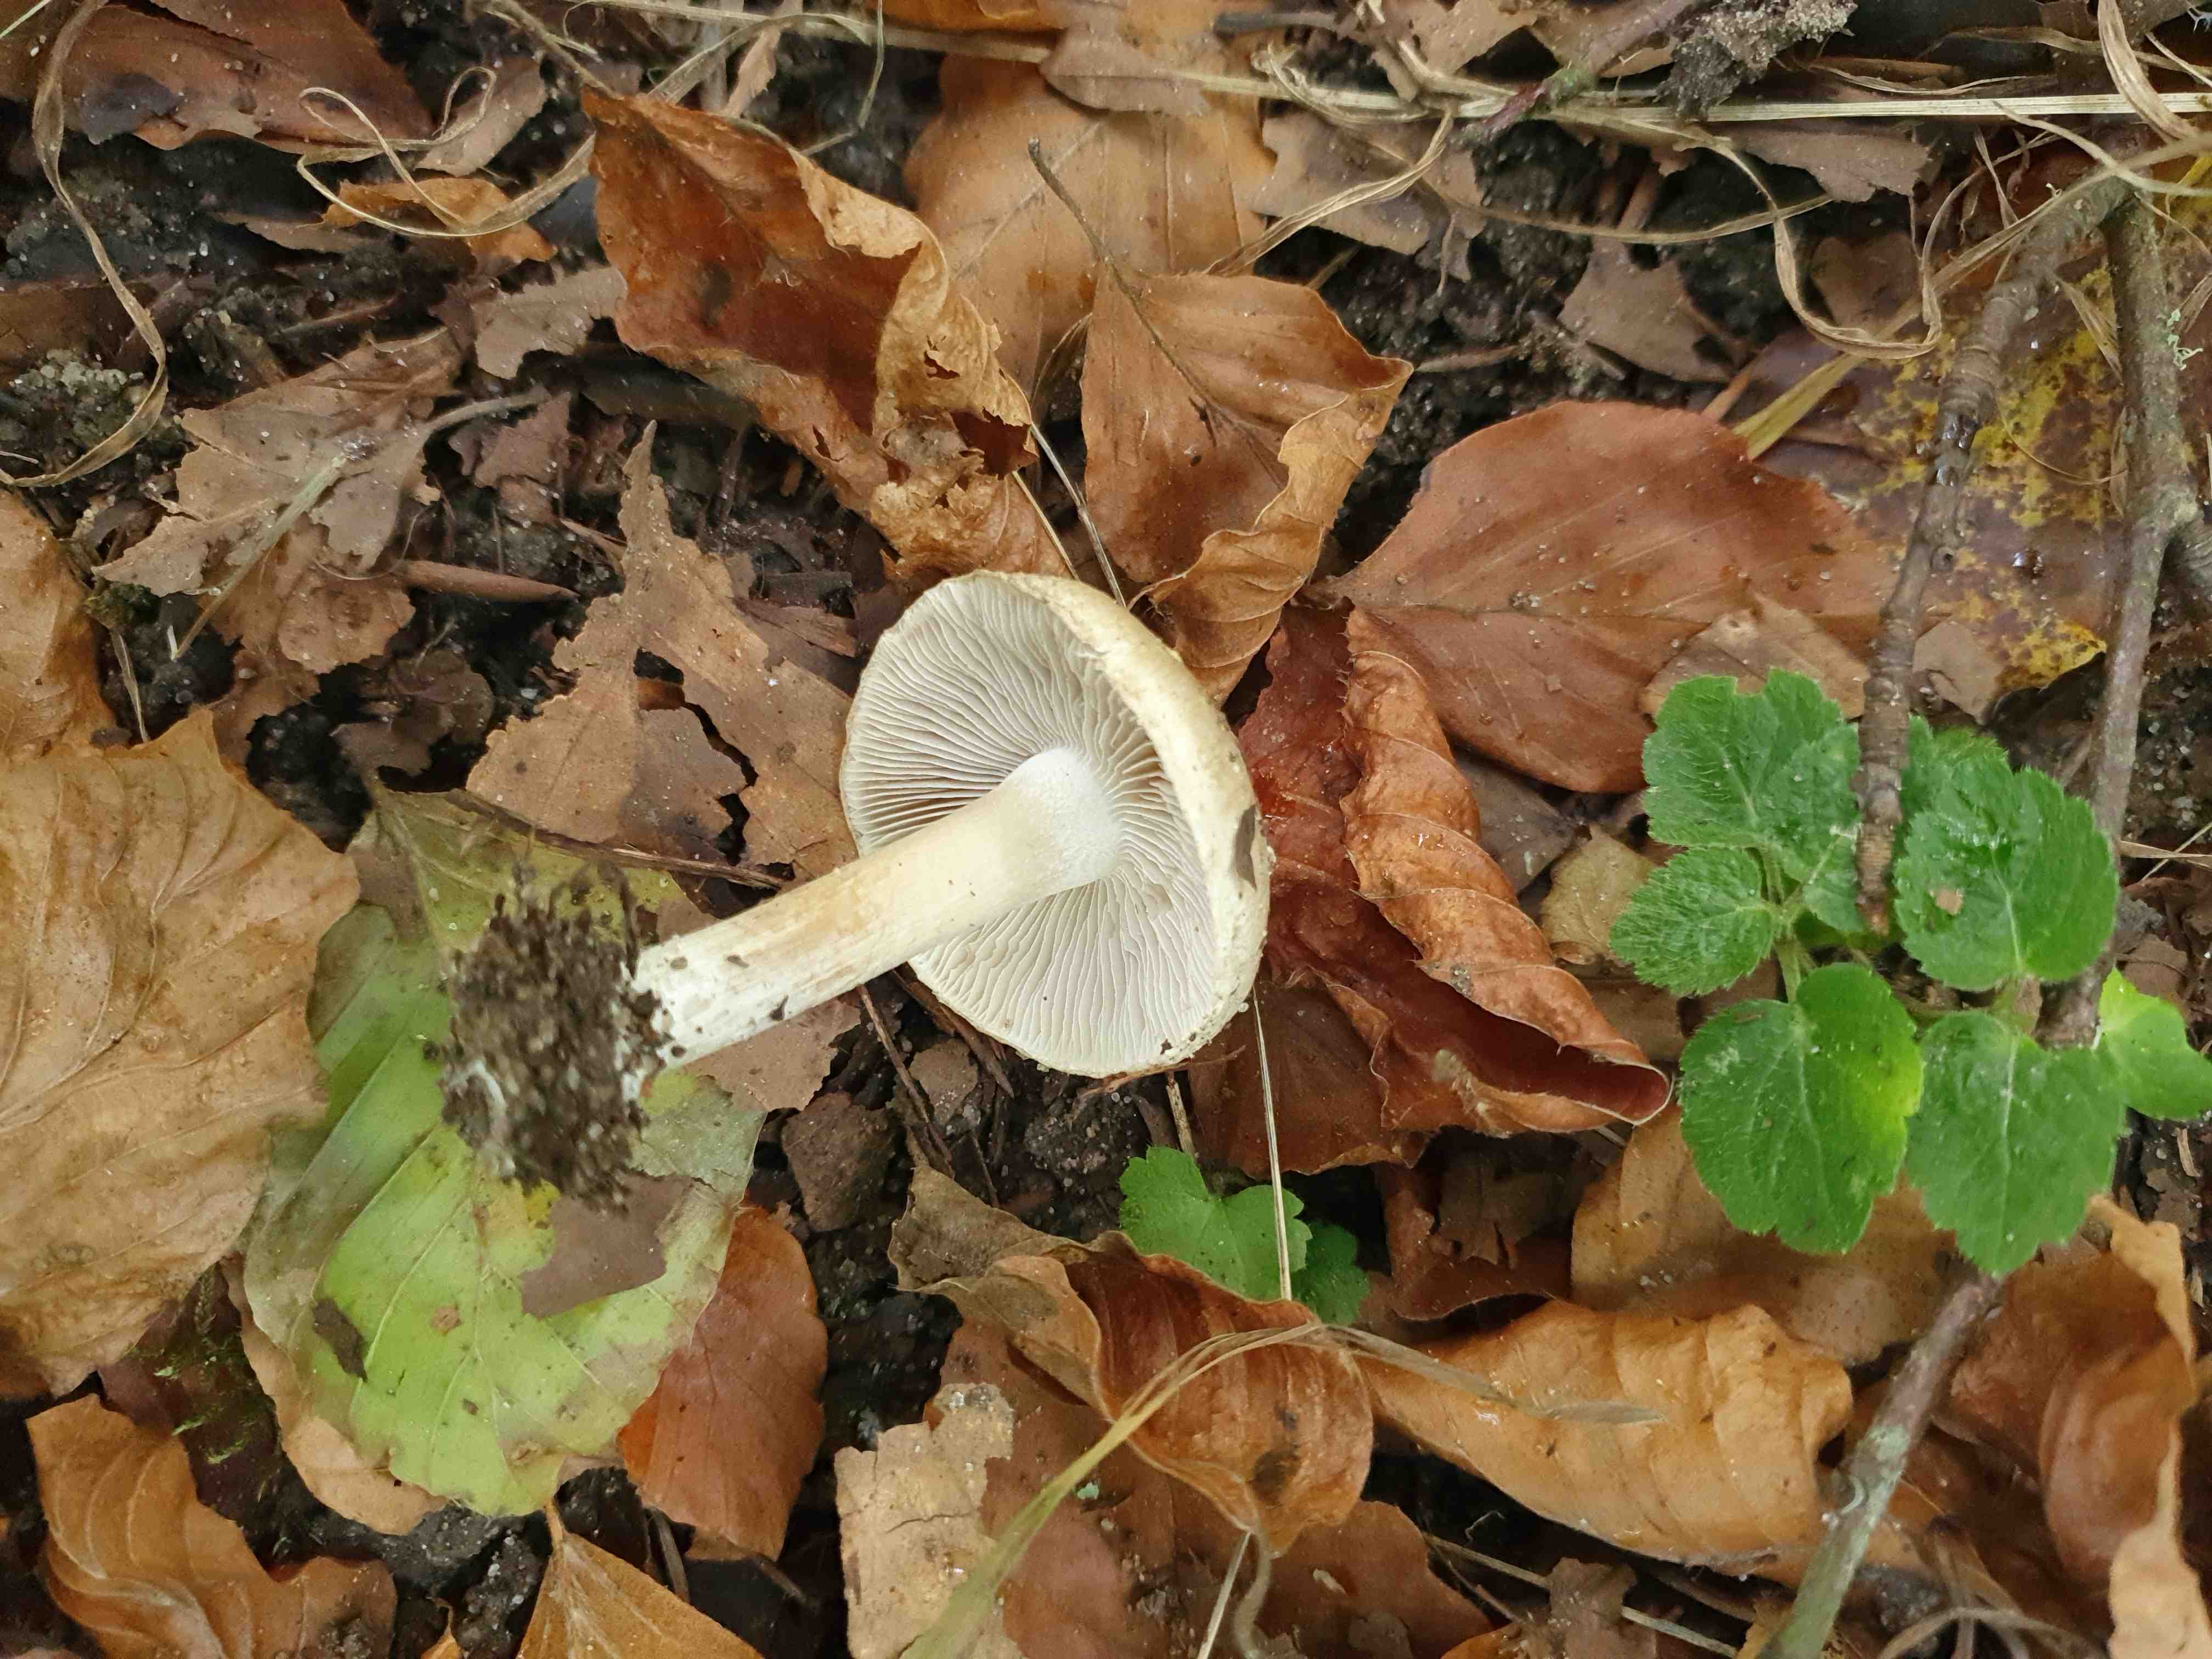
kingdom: Fungi
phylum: Basidiomycota
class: Agaricomycetes
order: Agaricales
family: Inocybaceae
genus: Inocybe
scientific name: Inocybe fraudans
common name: pæreduftende trævlhat
